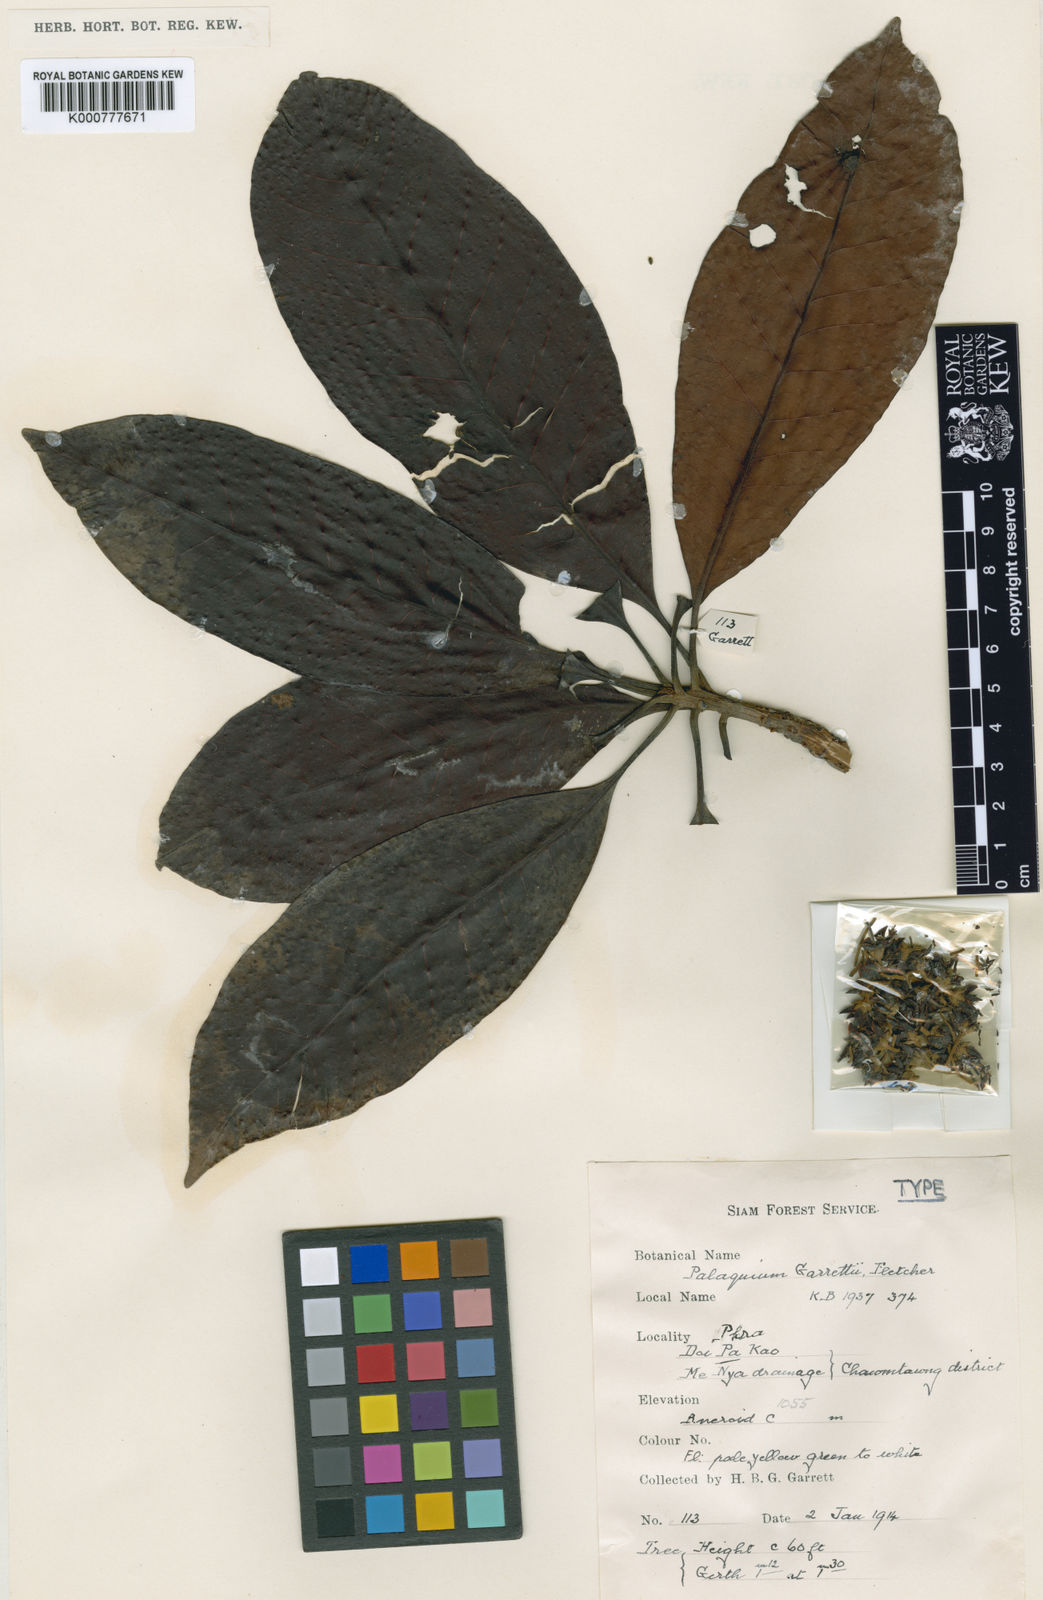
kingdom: Plantae
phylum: Tracheophyta
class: Magnoliopsida
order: Ericales
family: Sapotaceae
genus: Palaquium
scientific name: Palaquium maingayi
